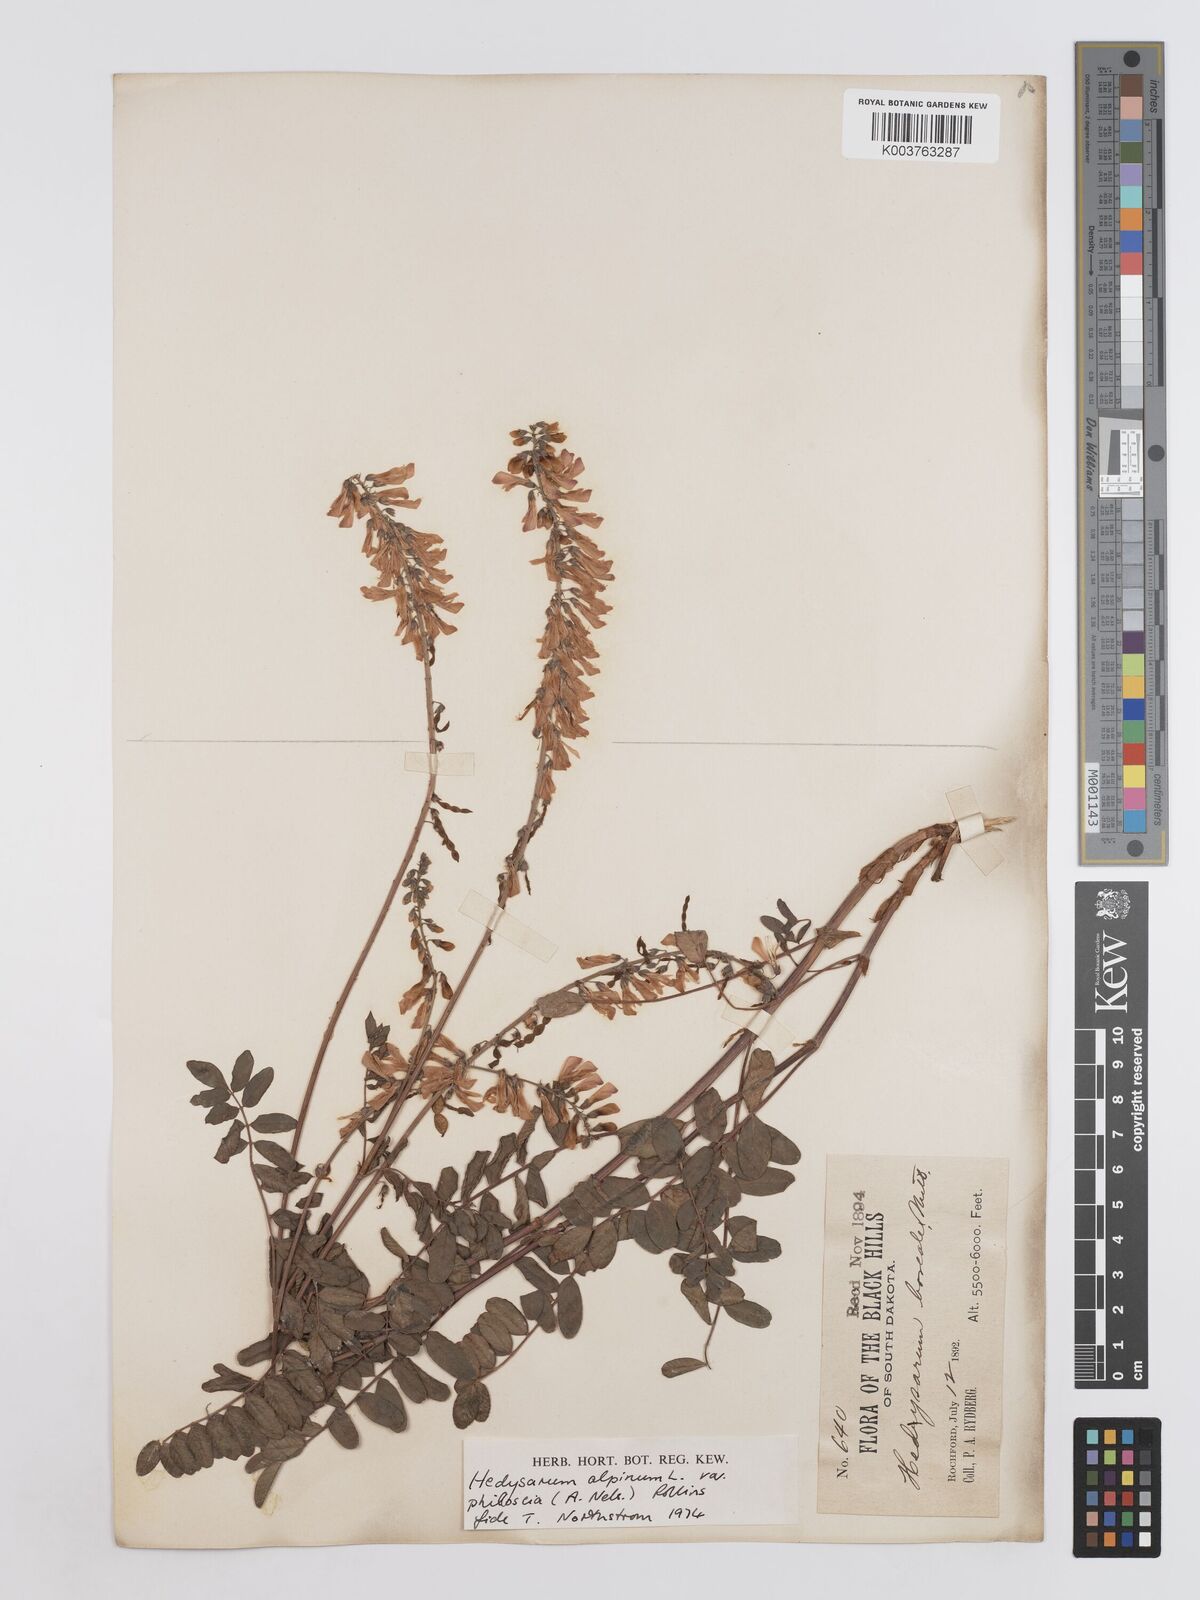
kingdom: Plantae
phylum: Tracheophyta
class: Magnoliopsida
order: Fabales
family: Fabaceae
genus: Hedysarum
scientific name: Hedysarum alpinum
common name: Alpine sweet-vetch
